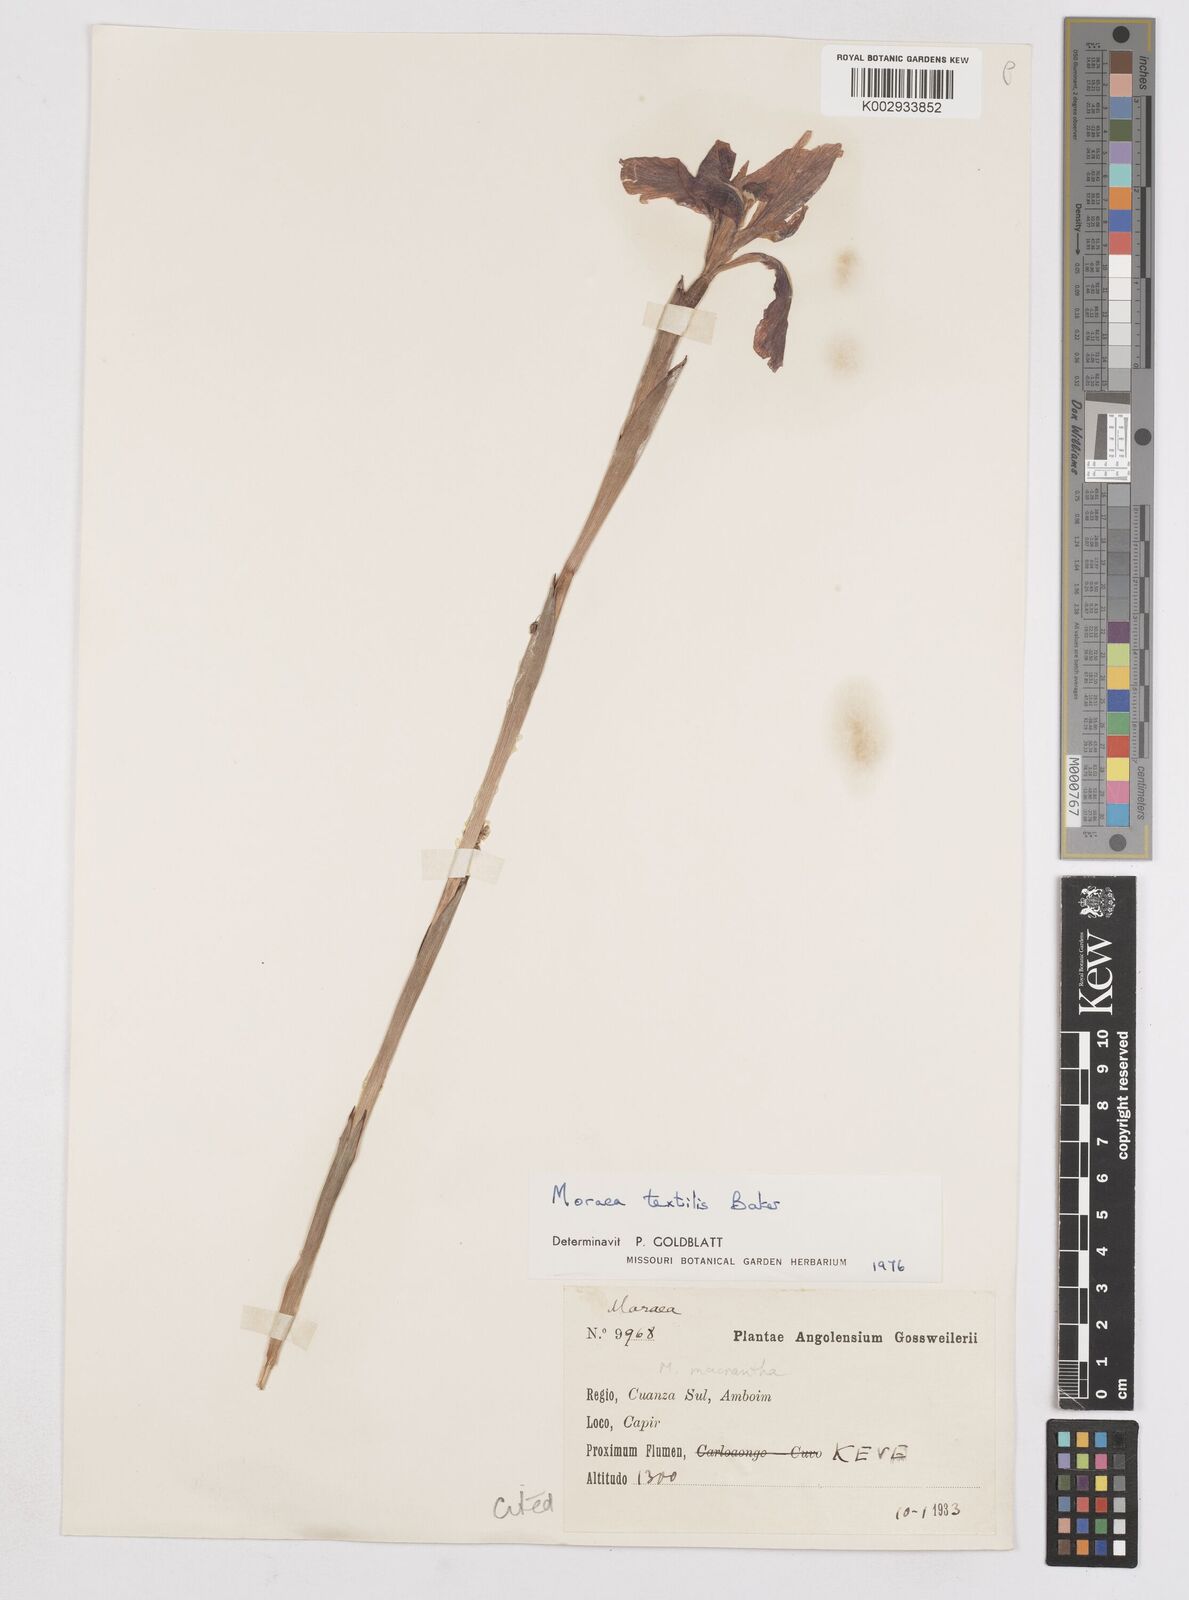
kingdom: Plantae
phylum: Tracheophyta
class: Liliopsida
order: Asparagales
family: Iridaceae
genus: Moraea
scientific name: Moraea textilis
